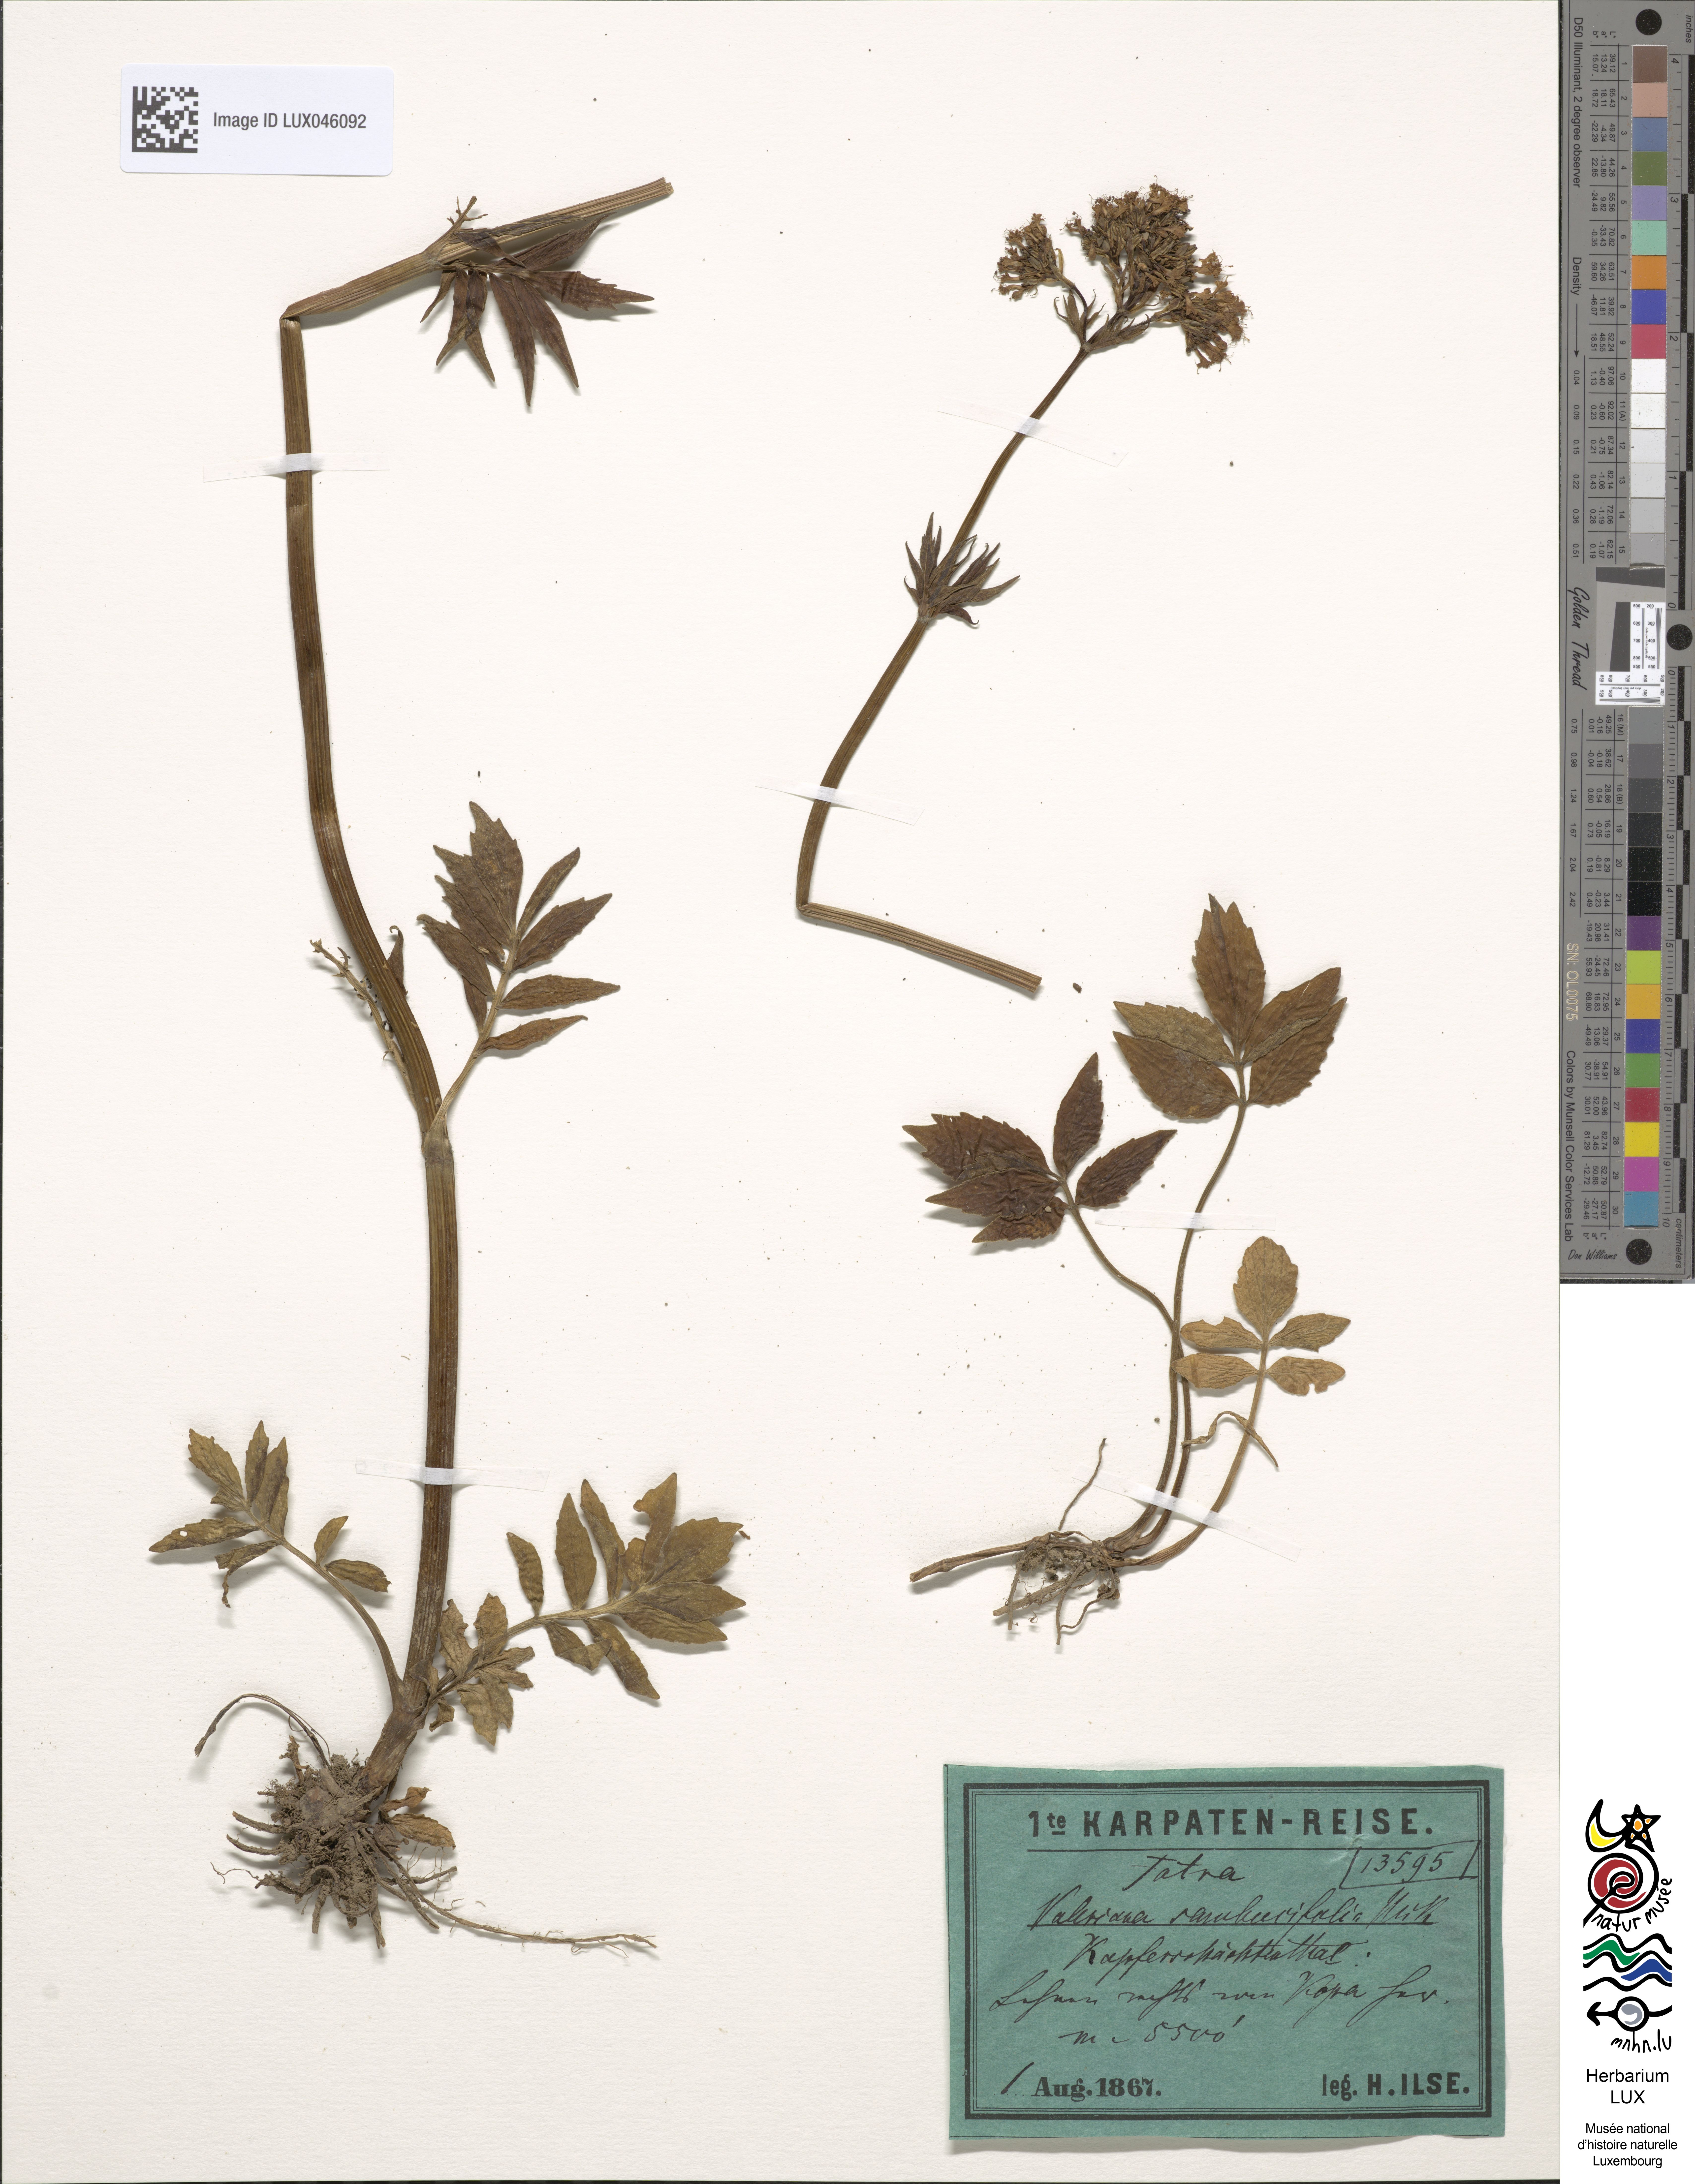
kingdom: Plantae
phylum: Tracheophyta
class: Magnoliopsida
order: Dipsacales
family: Caprifoliaceae
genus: Valeriana
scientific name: Valeriana excelsa
